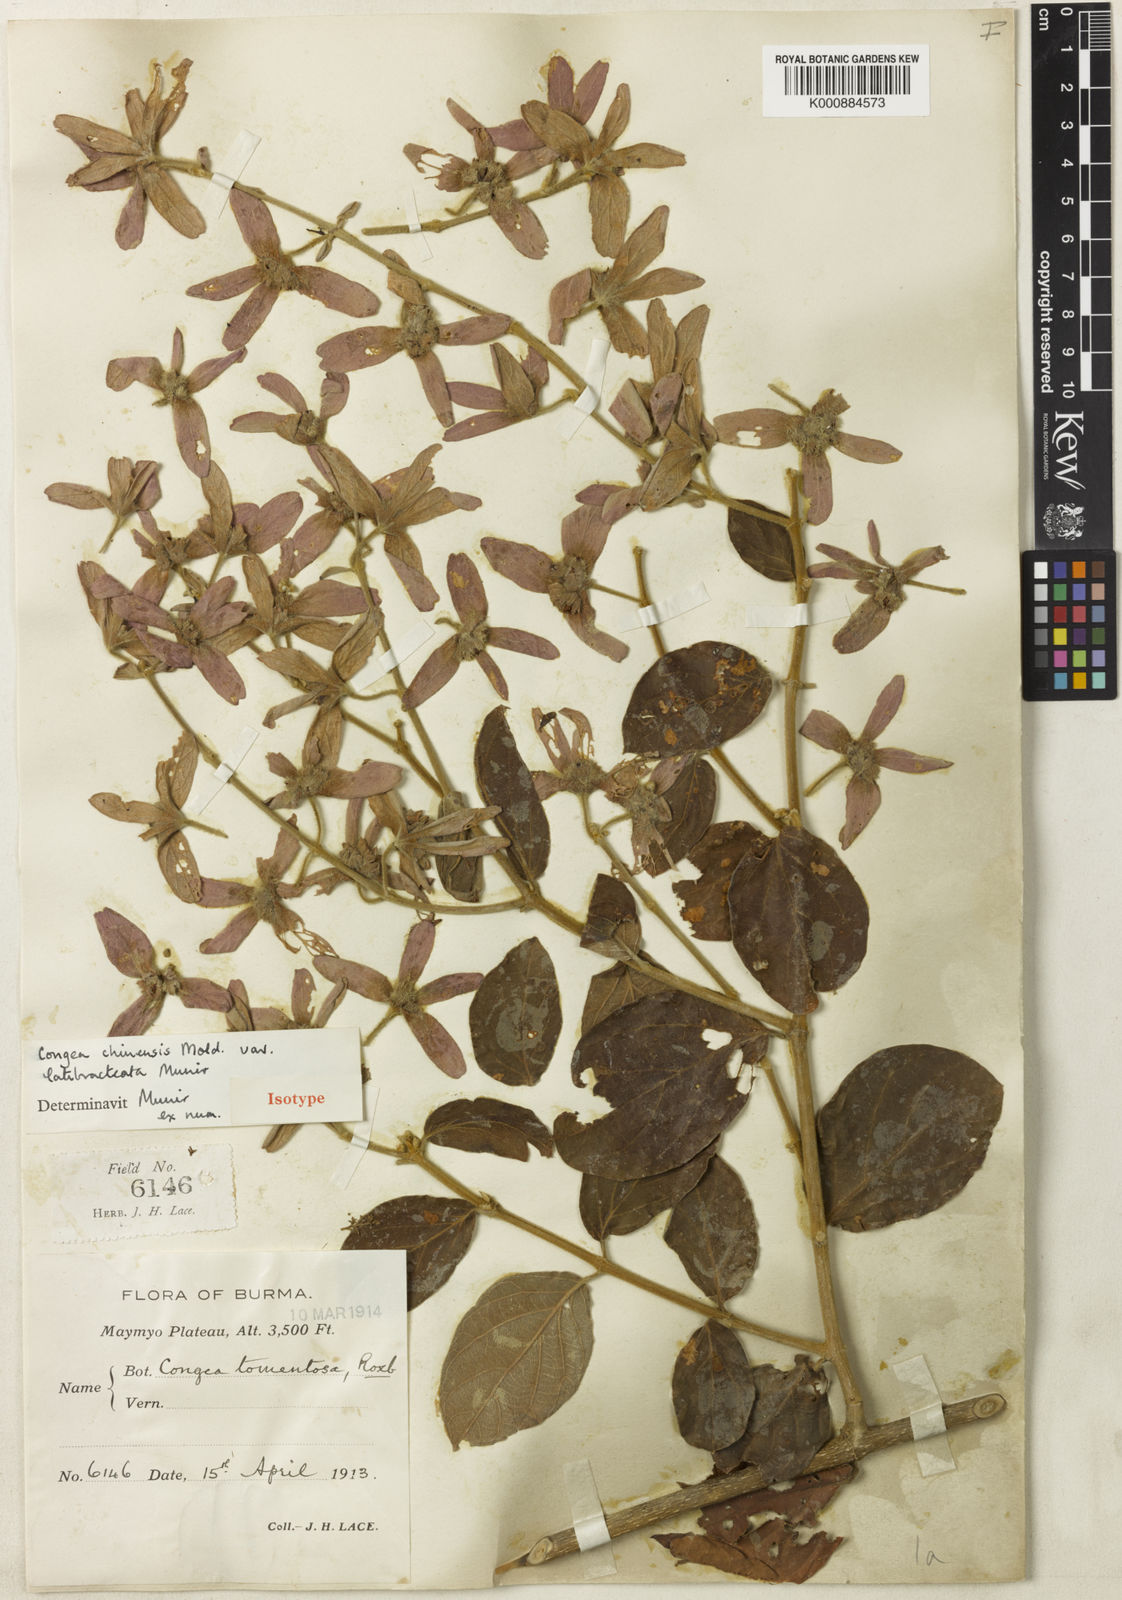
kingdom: Plantae
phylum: Tracheophyta
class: Magnoliopsida
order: Lamiales
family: Lamiaceae
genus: Congea
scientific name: Congea chinensis
